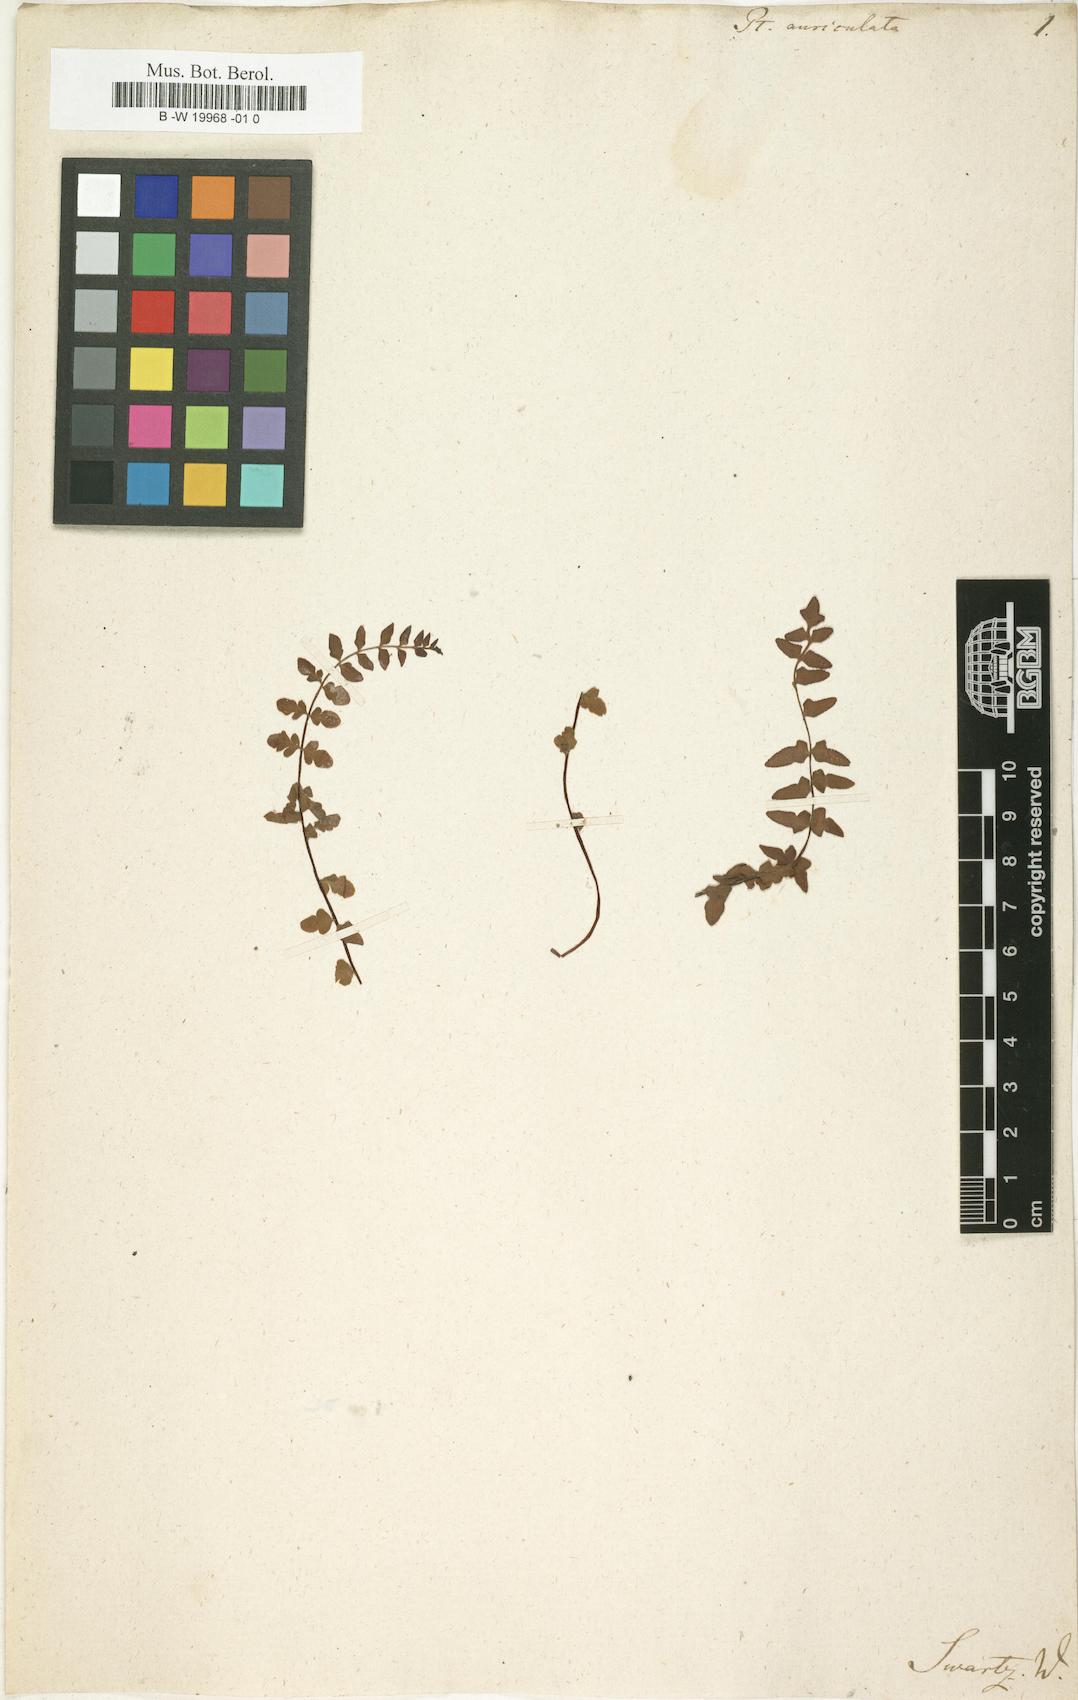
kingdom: Plantae
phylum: Tracheophyta
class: Polypodiopsida
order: Polypodiales
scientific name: Polypodiales
